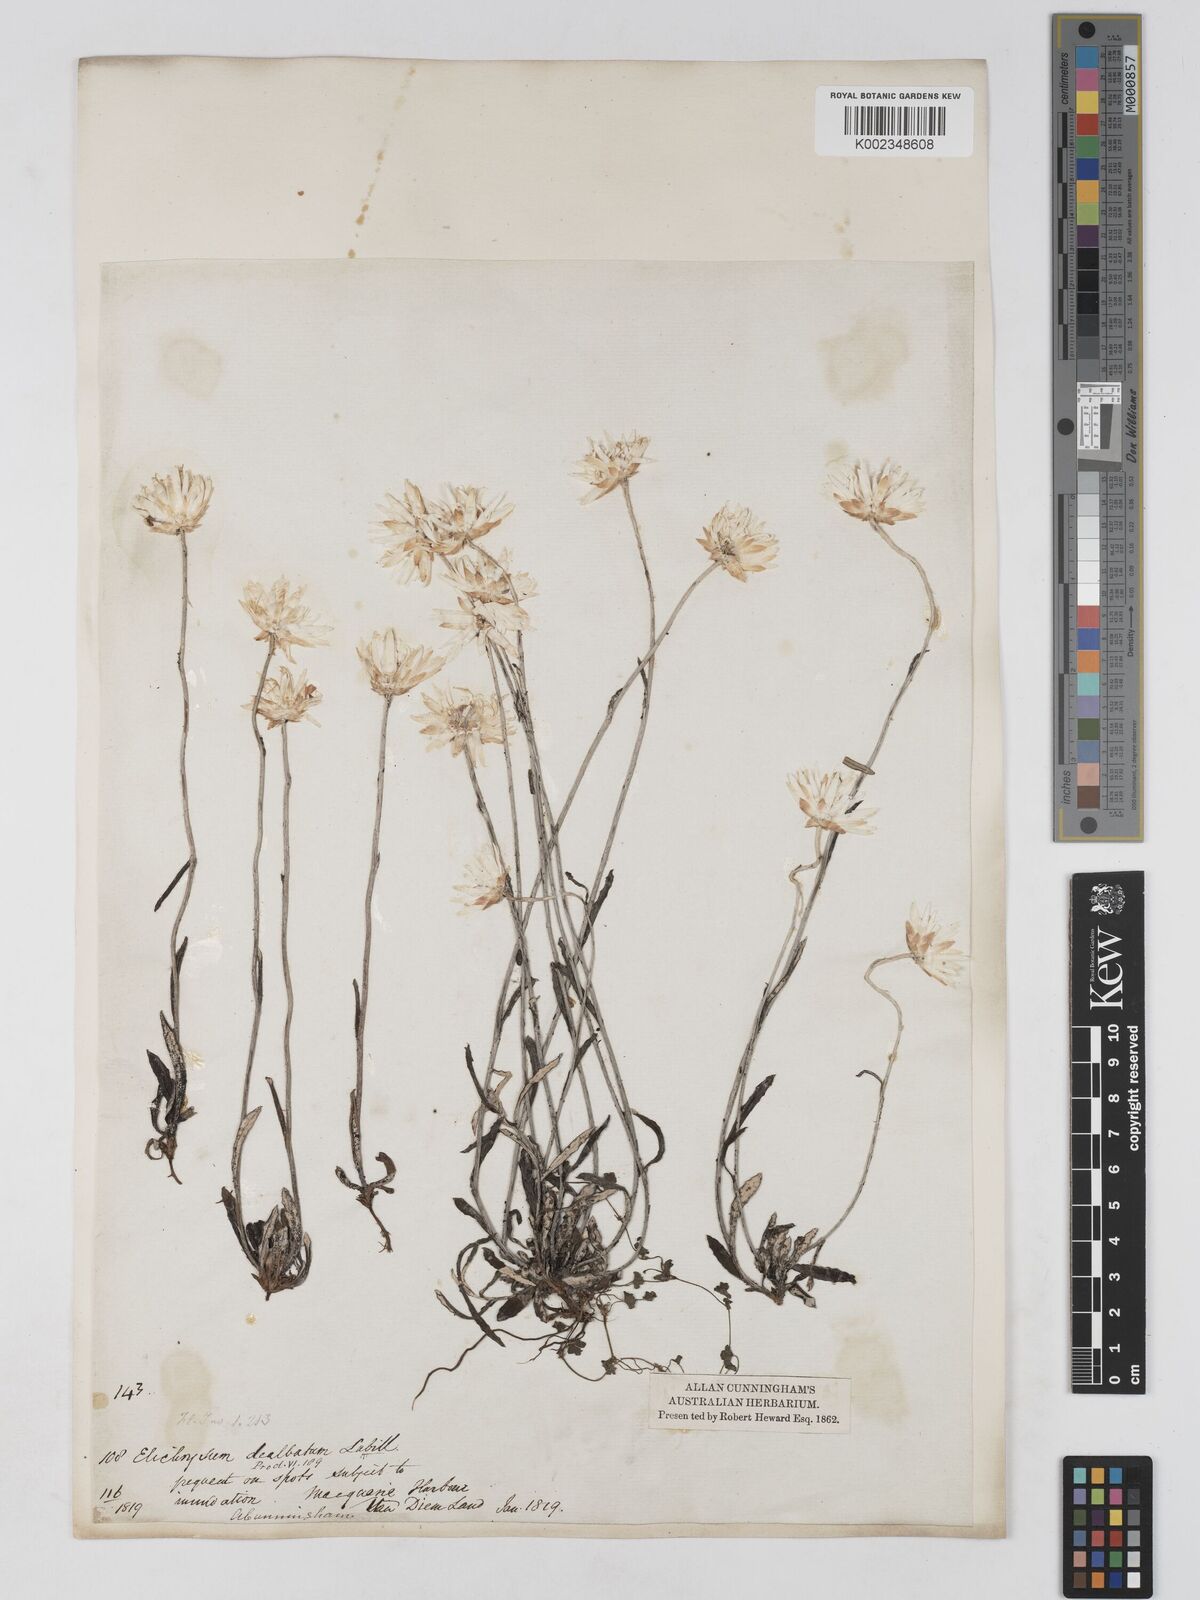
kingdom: Plantae
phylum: Tracheophyta
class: Magnoliopsida
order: Asterales
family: Asteraceae
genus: Argentipallium
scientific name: Argentipallium dealbatum
